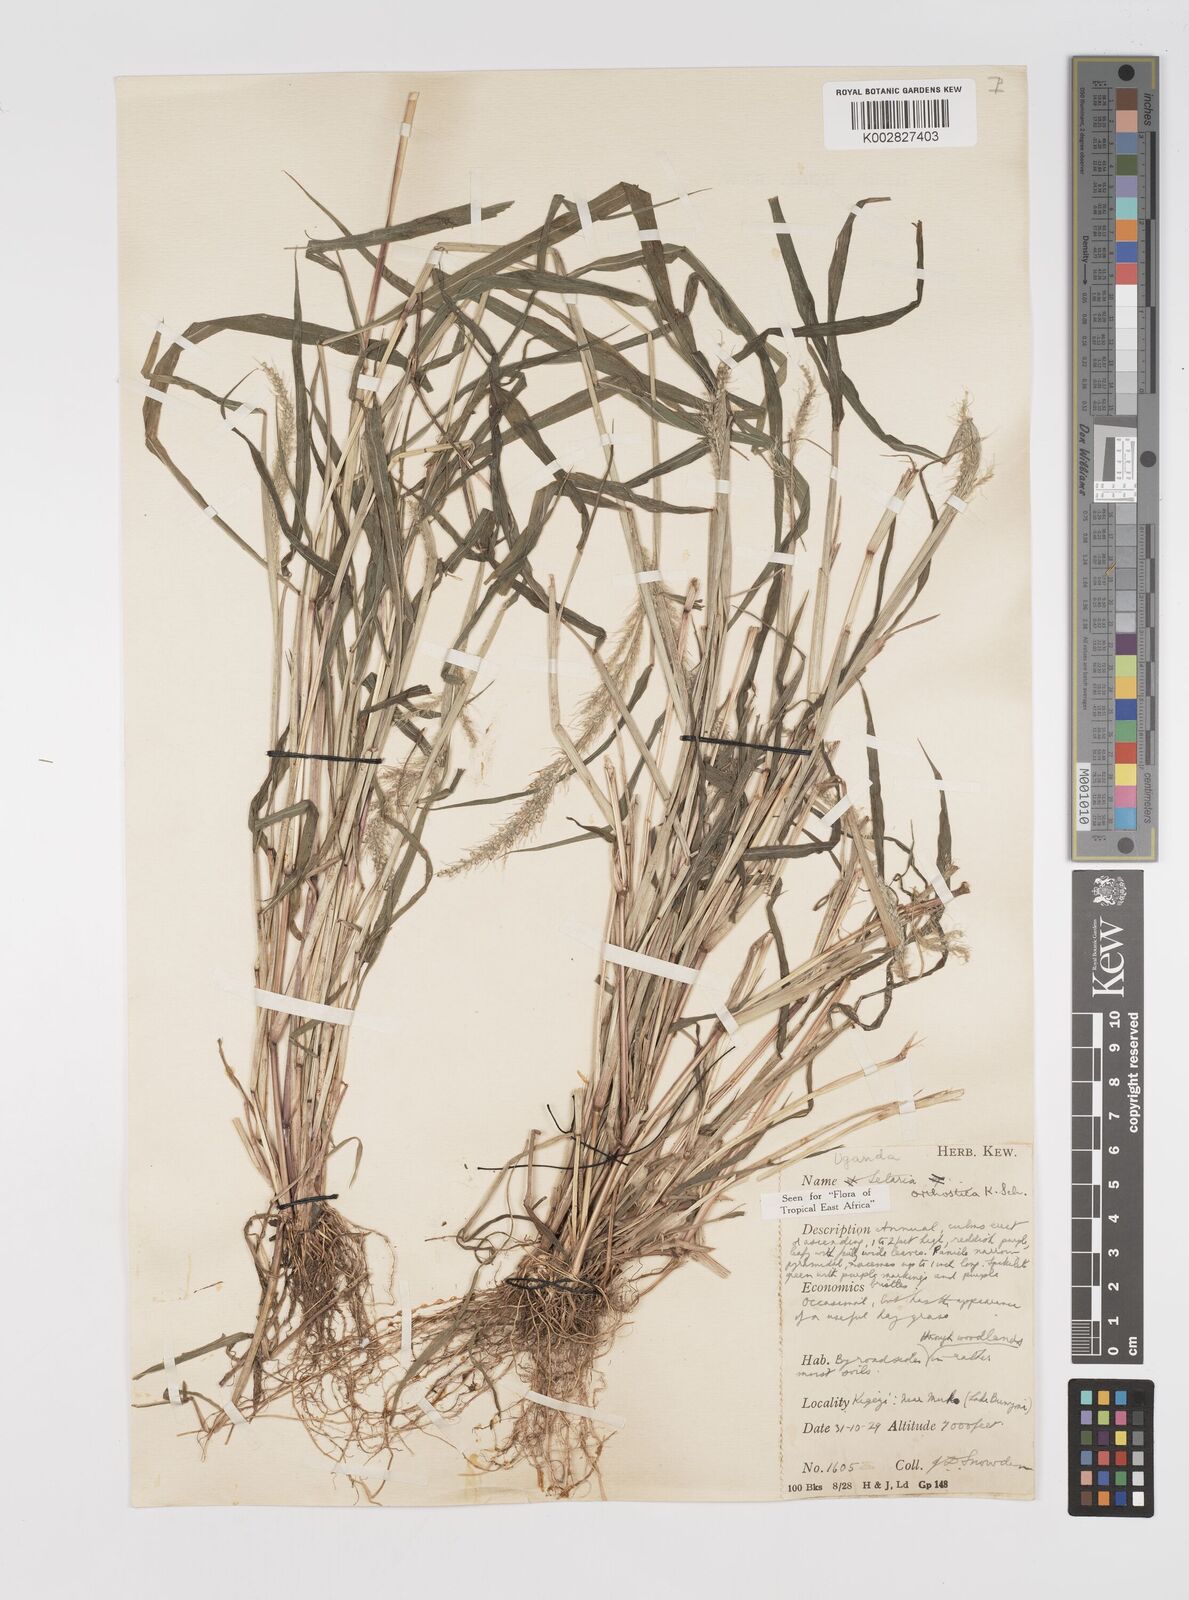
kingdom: Plantae
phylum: Tracheophyta
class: Liliopsida
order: Poales
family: Poaceae
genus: Setaria
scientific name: Setaria orthosticha
